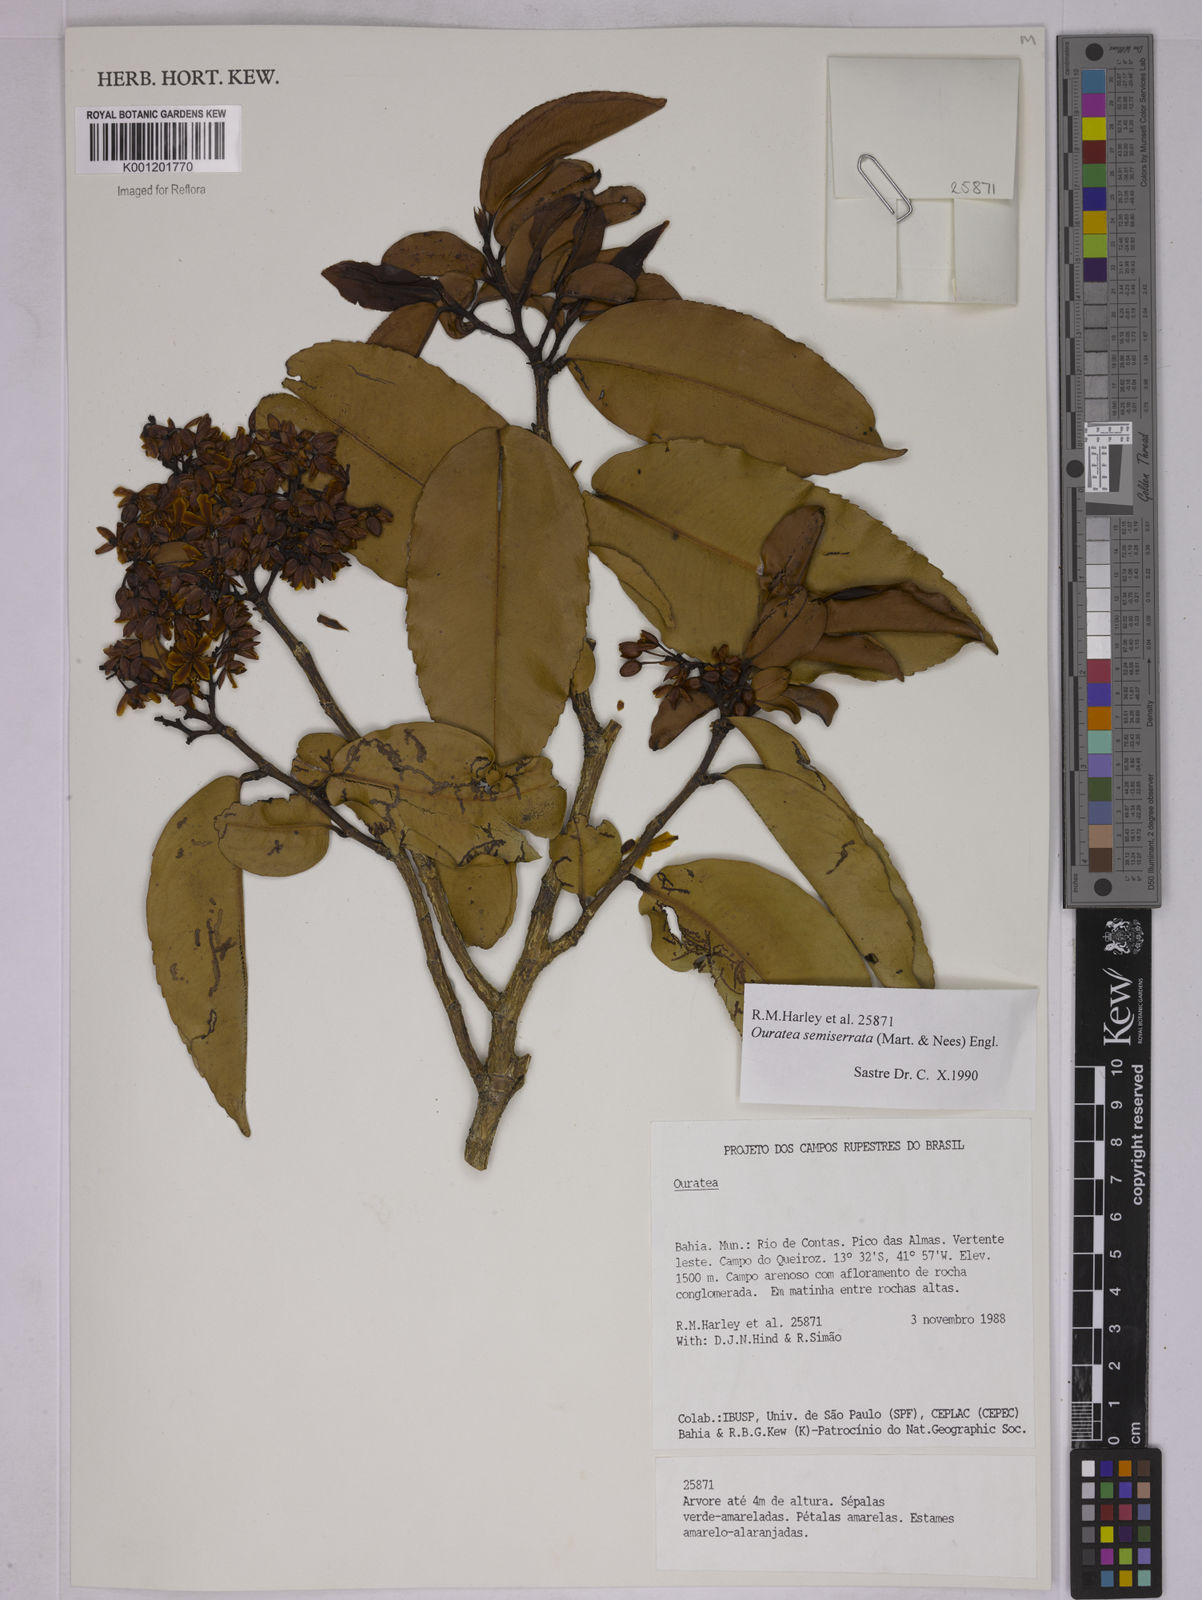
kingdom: Plantae
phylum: Tracheophyta
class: Magnoliopsida
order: Malpighiales
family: Ochnaceae
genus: Ouratea
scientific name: Ouratea semiserrata
